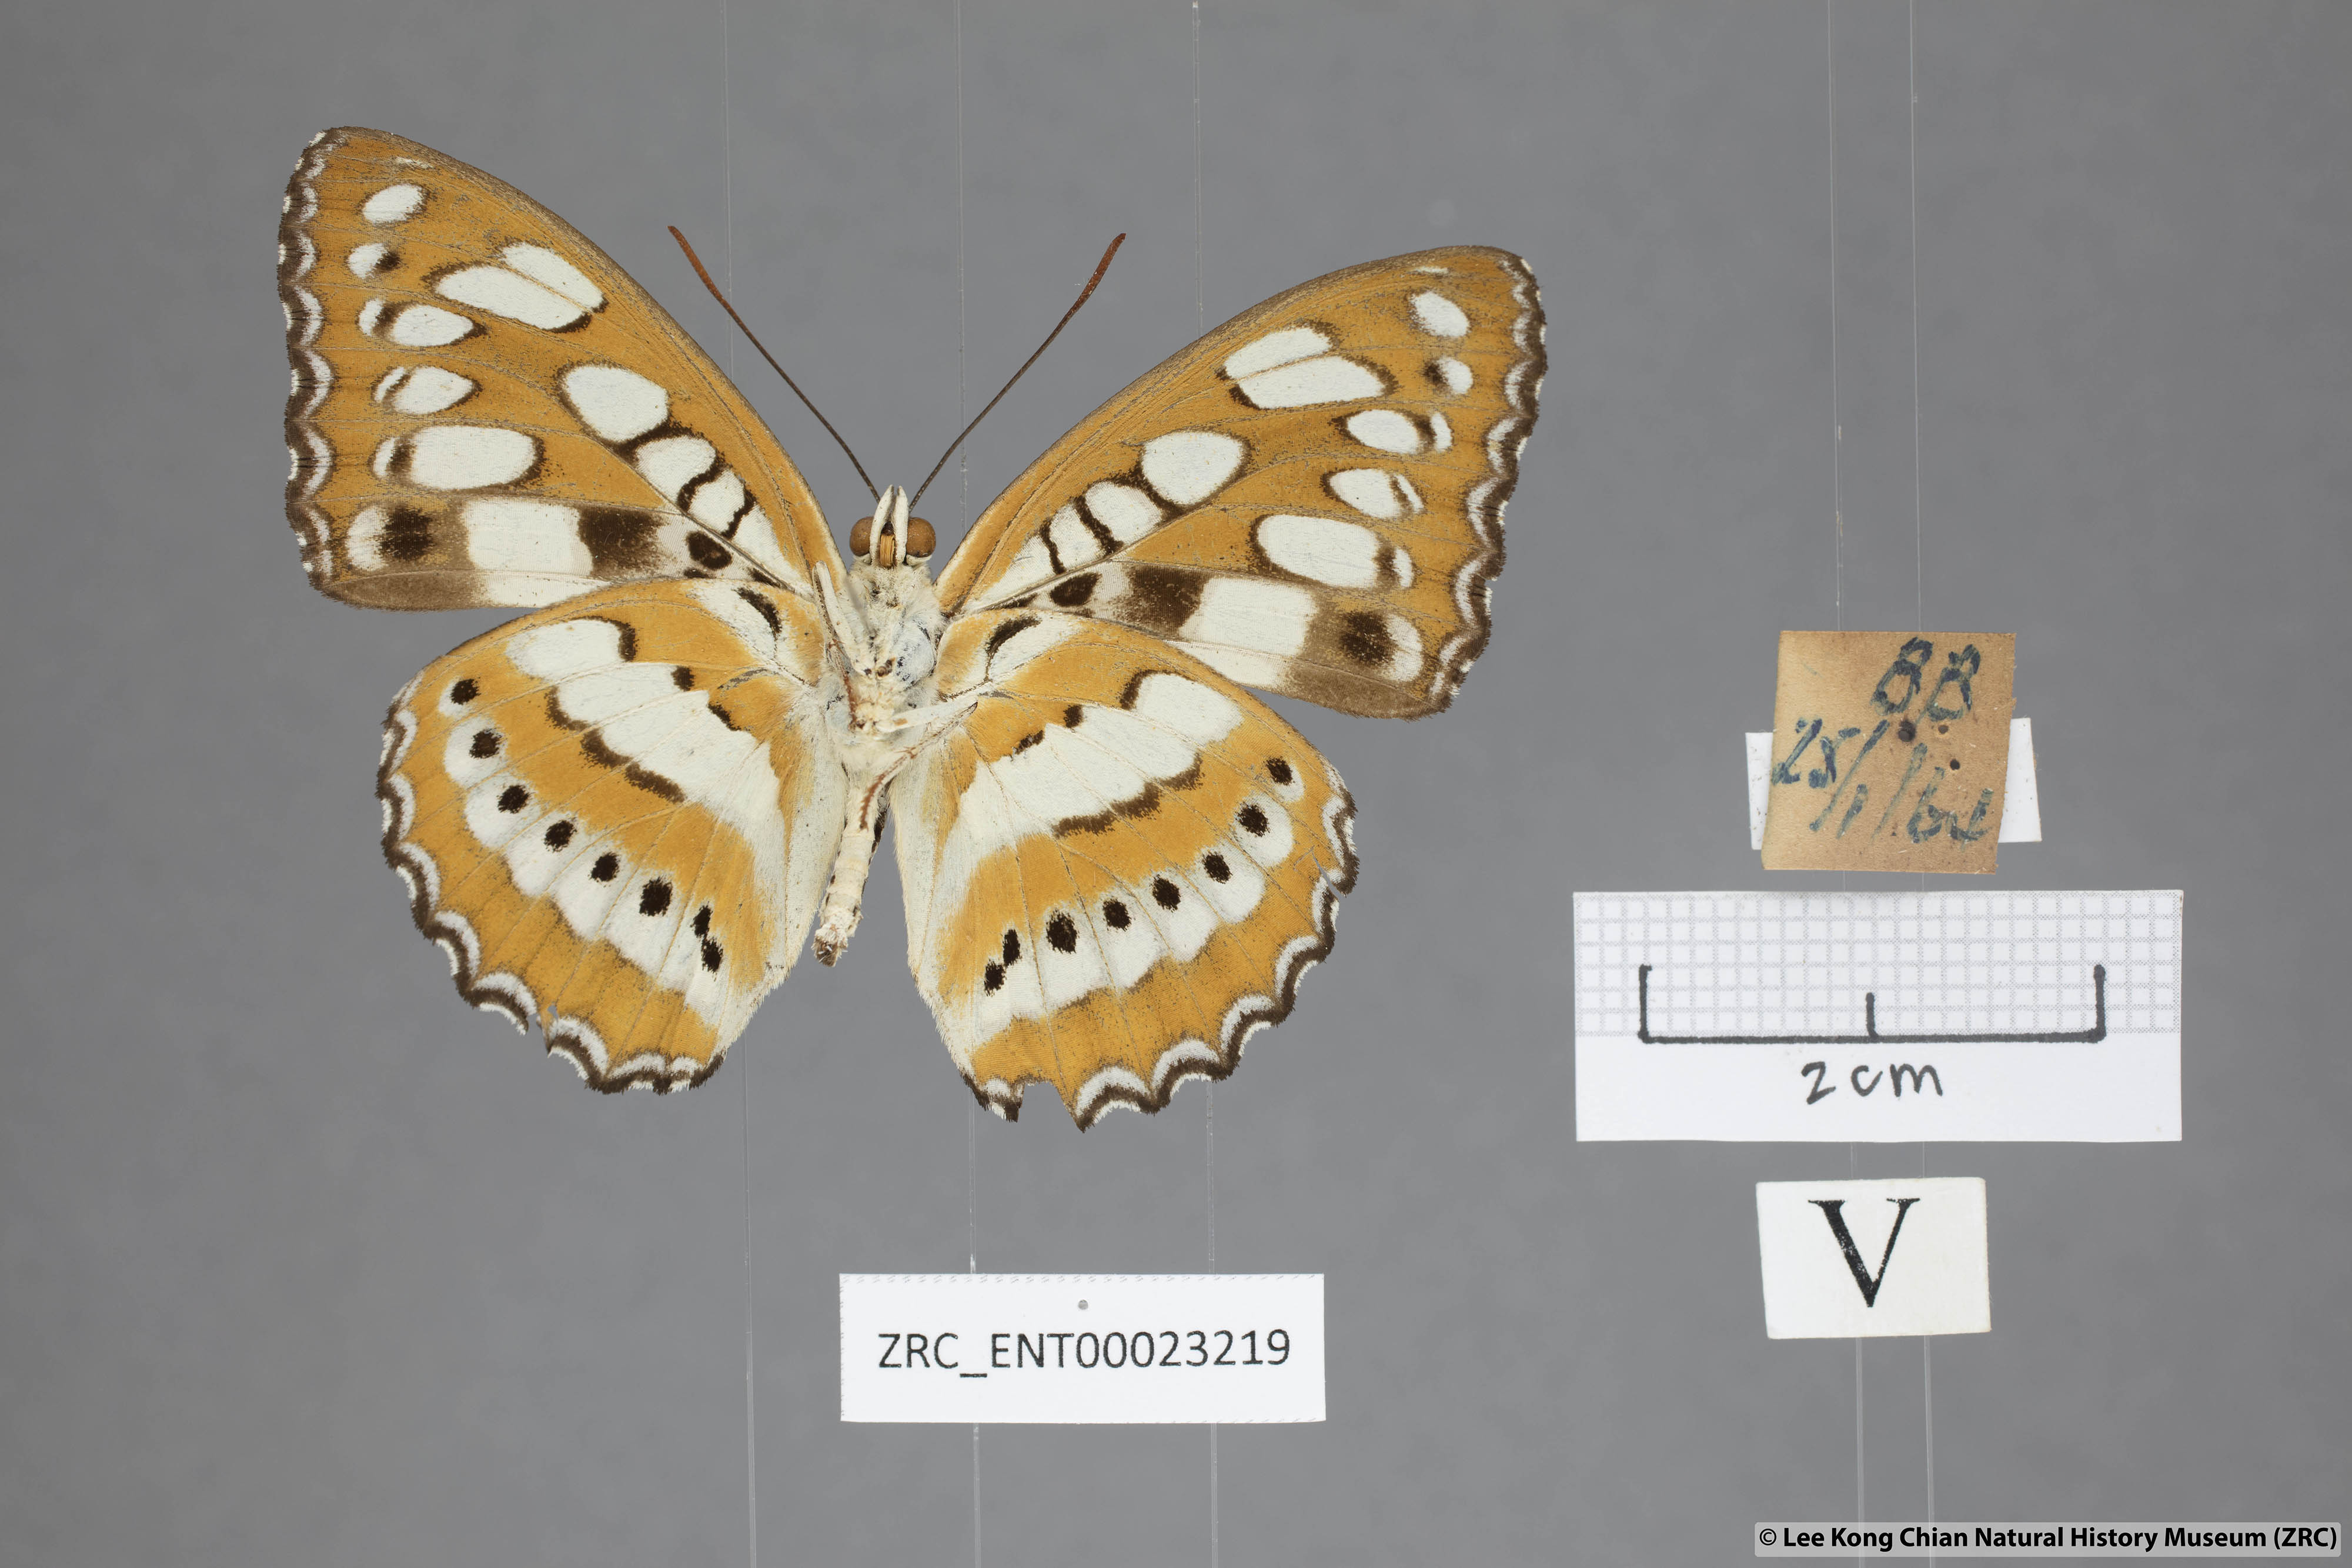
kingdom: Animalia
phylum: Arthropoda
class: Insecta
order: Lepidoptera
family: Nymphalidae
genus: Parathyma
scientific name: Parathyma perius
